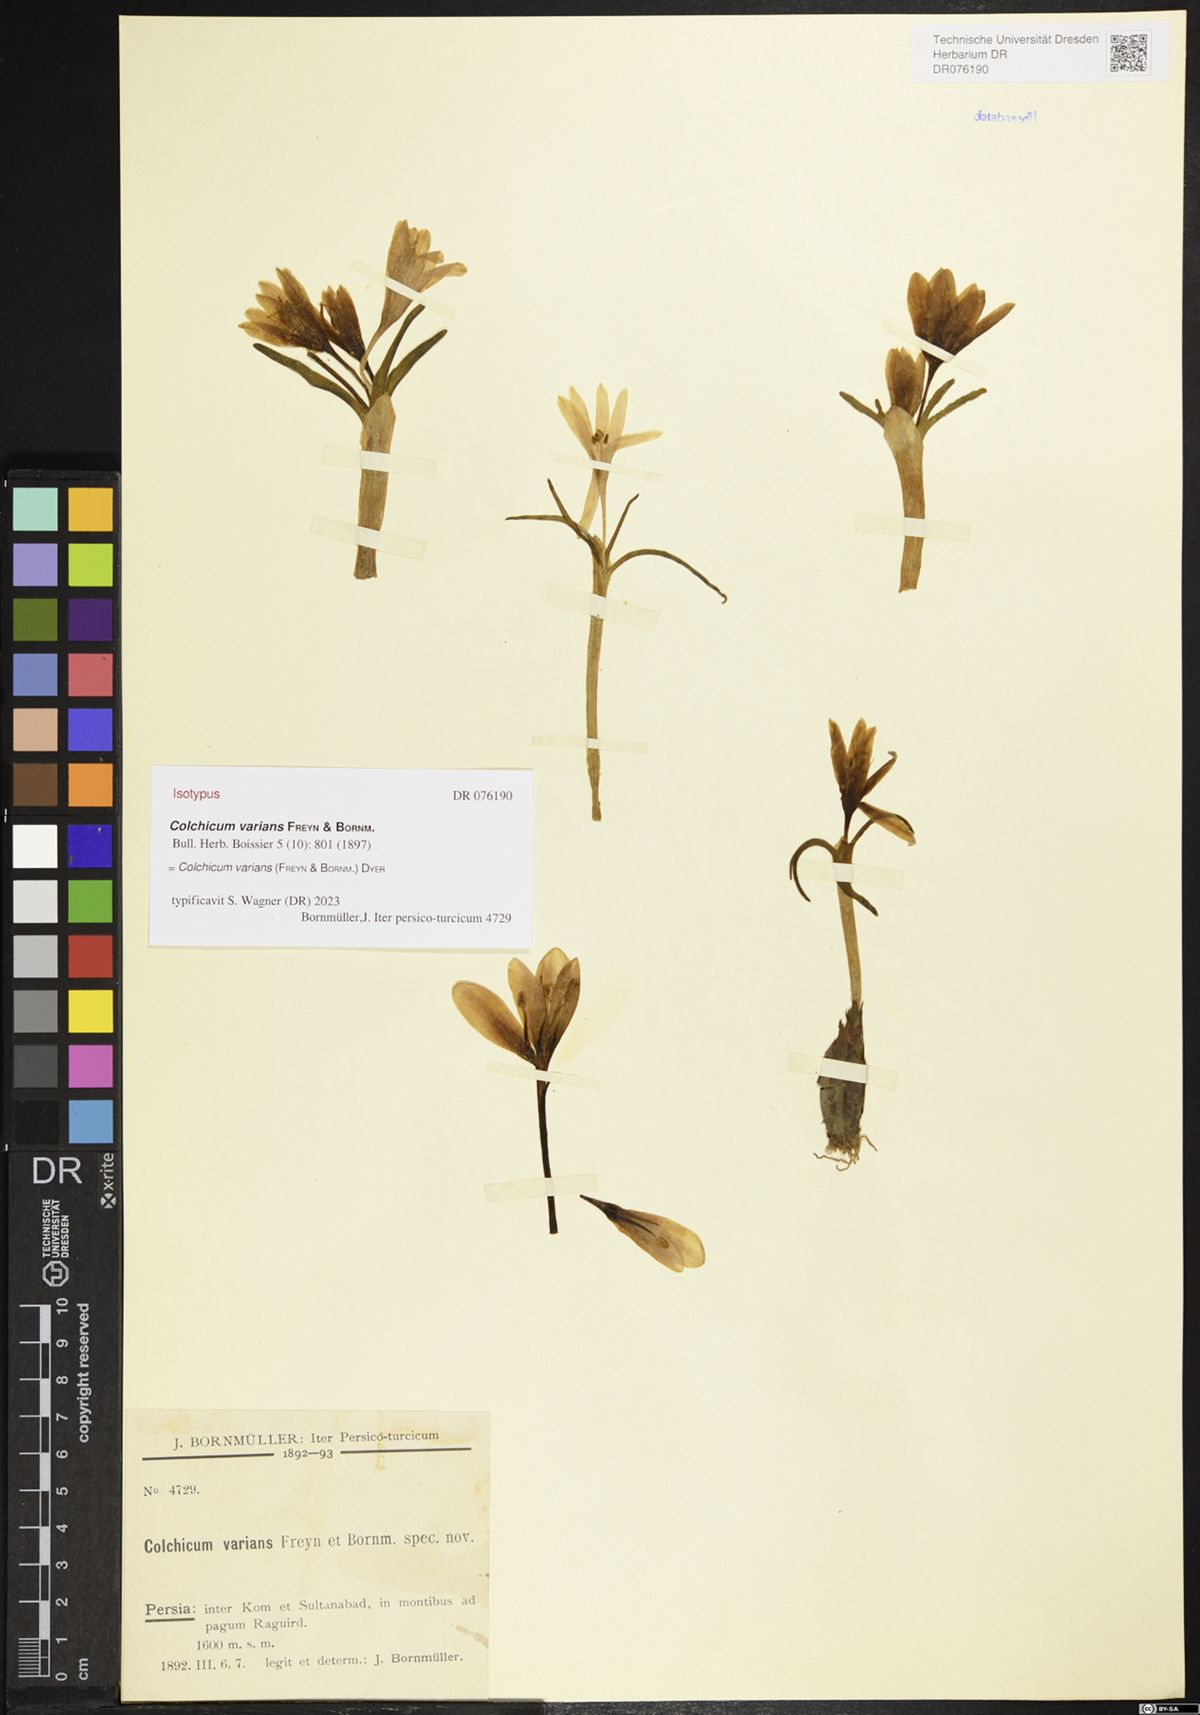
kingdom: Plantae
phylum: Tracheophyta
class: Liliopsida
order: Liliales
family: Colchicaceae
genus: Colchicum
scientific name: Colchicum varians
